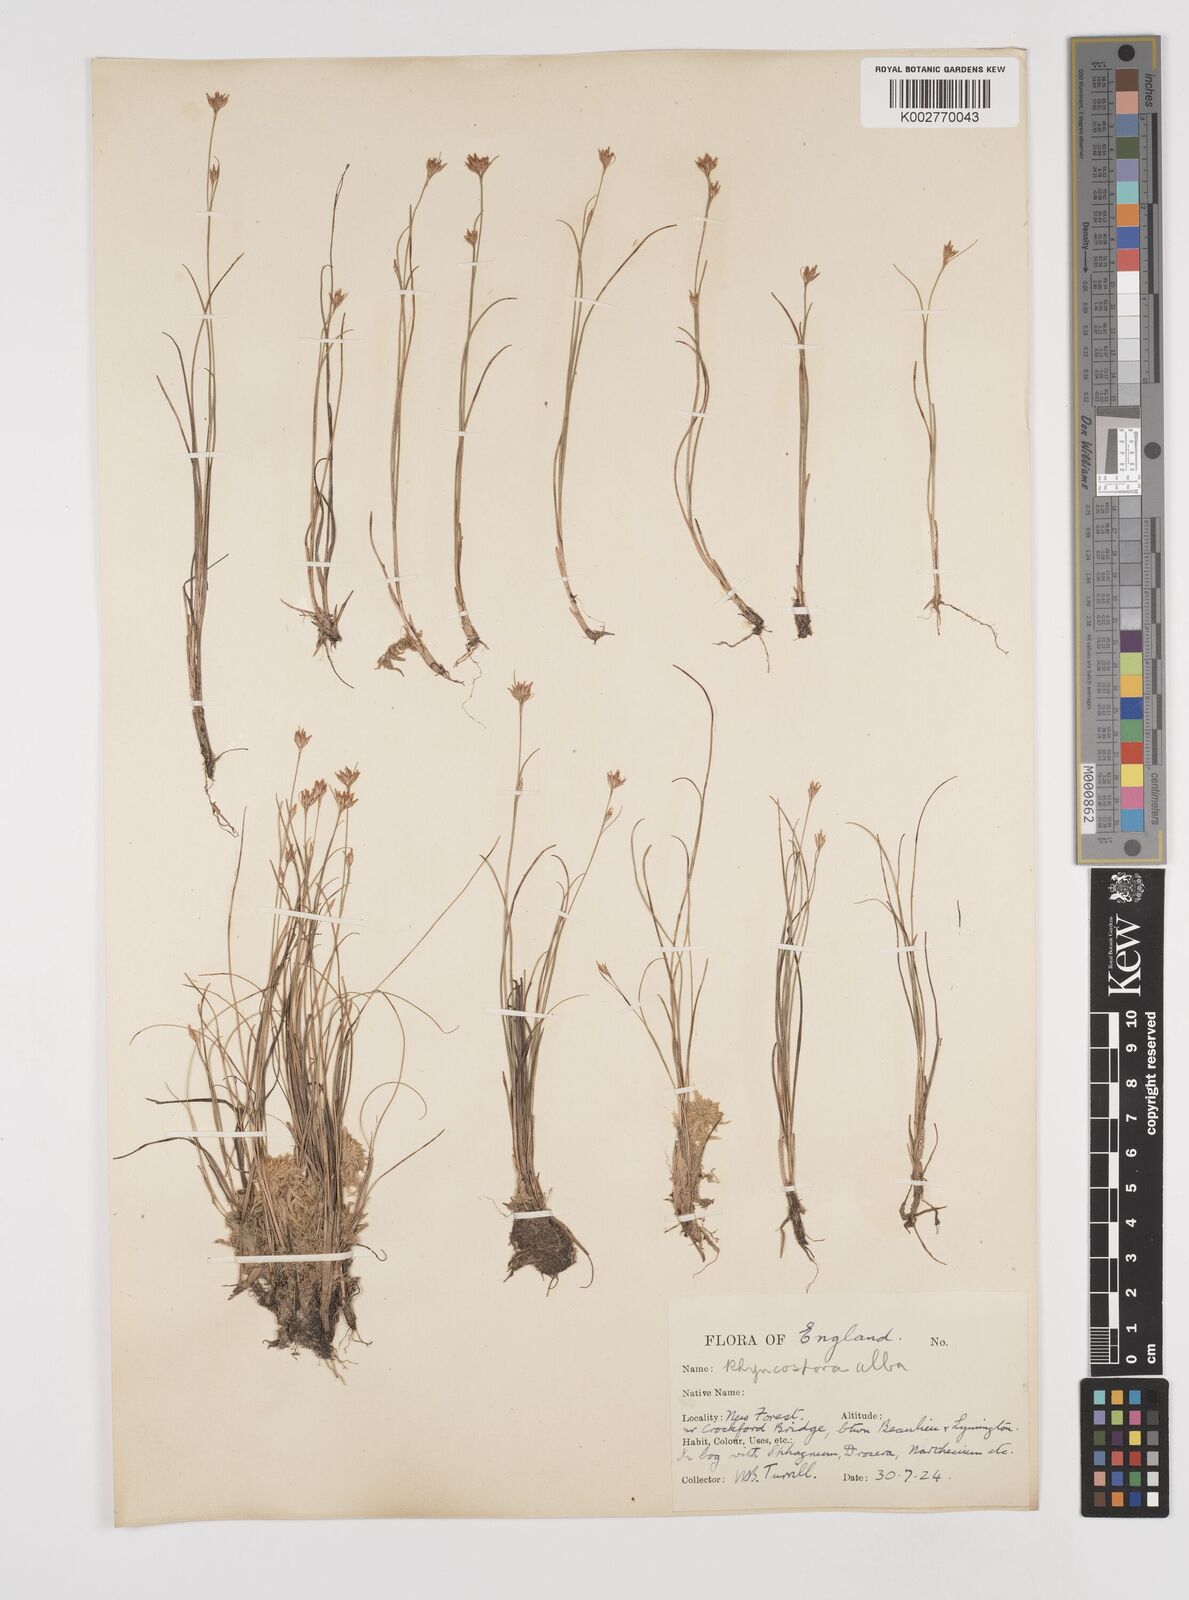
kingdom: Plantae
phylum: Tracheophyta
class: Liliopsida
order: Poales
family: Cyperaceae
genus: Rhynchospora
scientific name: Rhynchospora alba
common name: White beak-sedge
